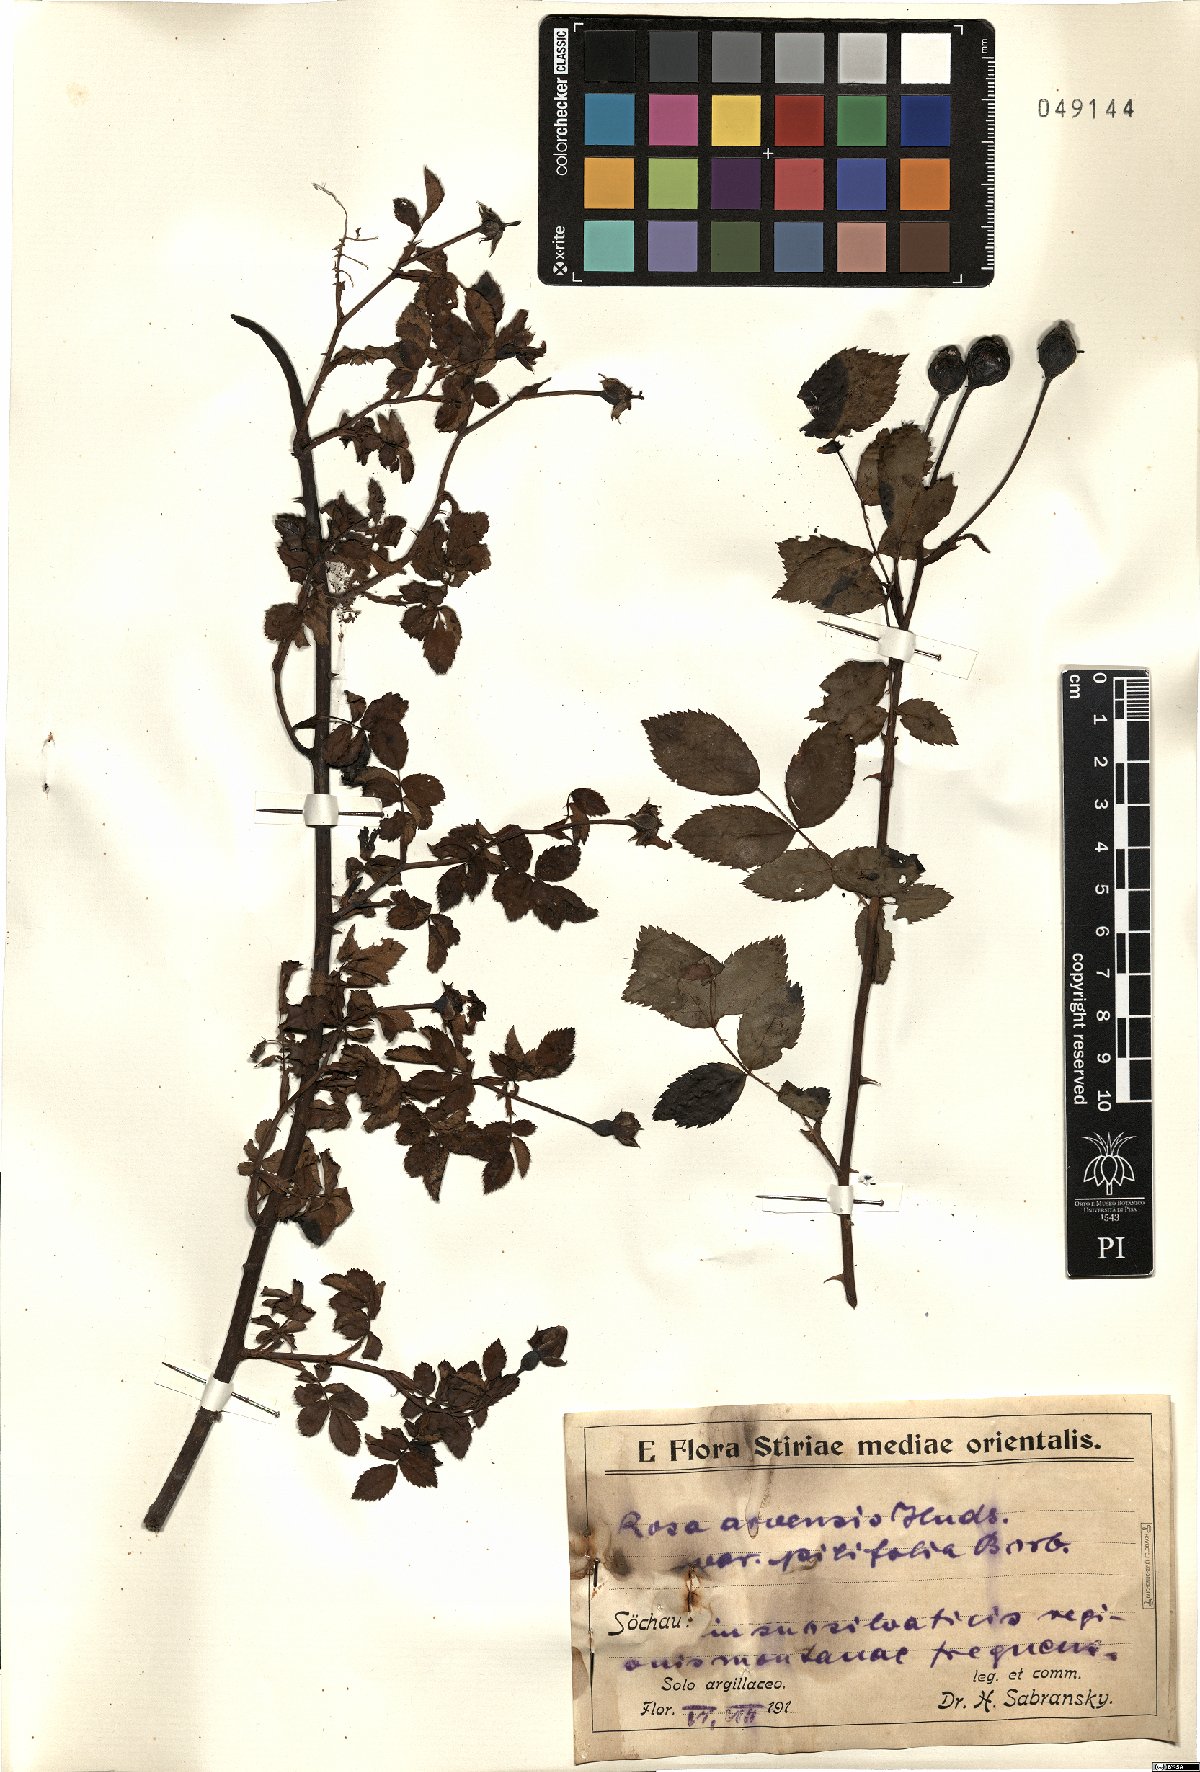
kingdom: Plantae
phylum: Tracheophyta
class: Magnoliopsida
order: Rosales
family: Rosaceae
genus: Rosa
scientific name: Rosa arvensis
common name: Field rose
